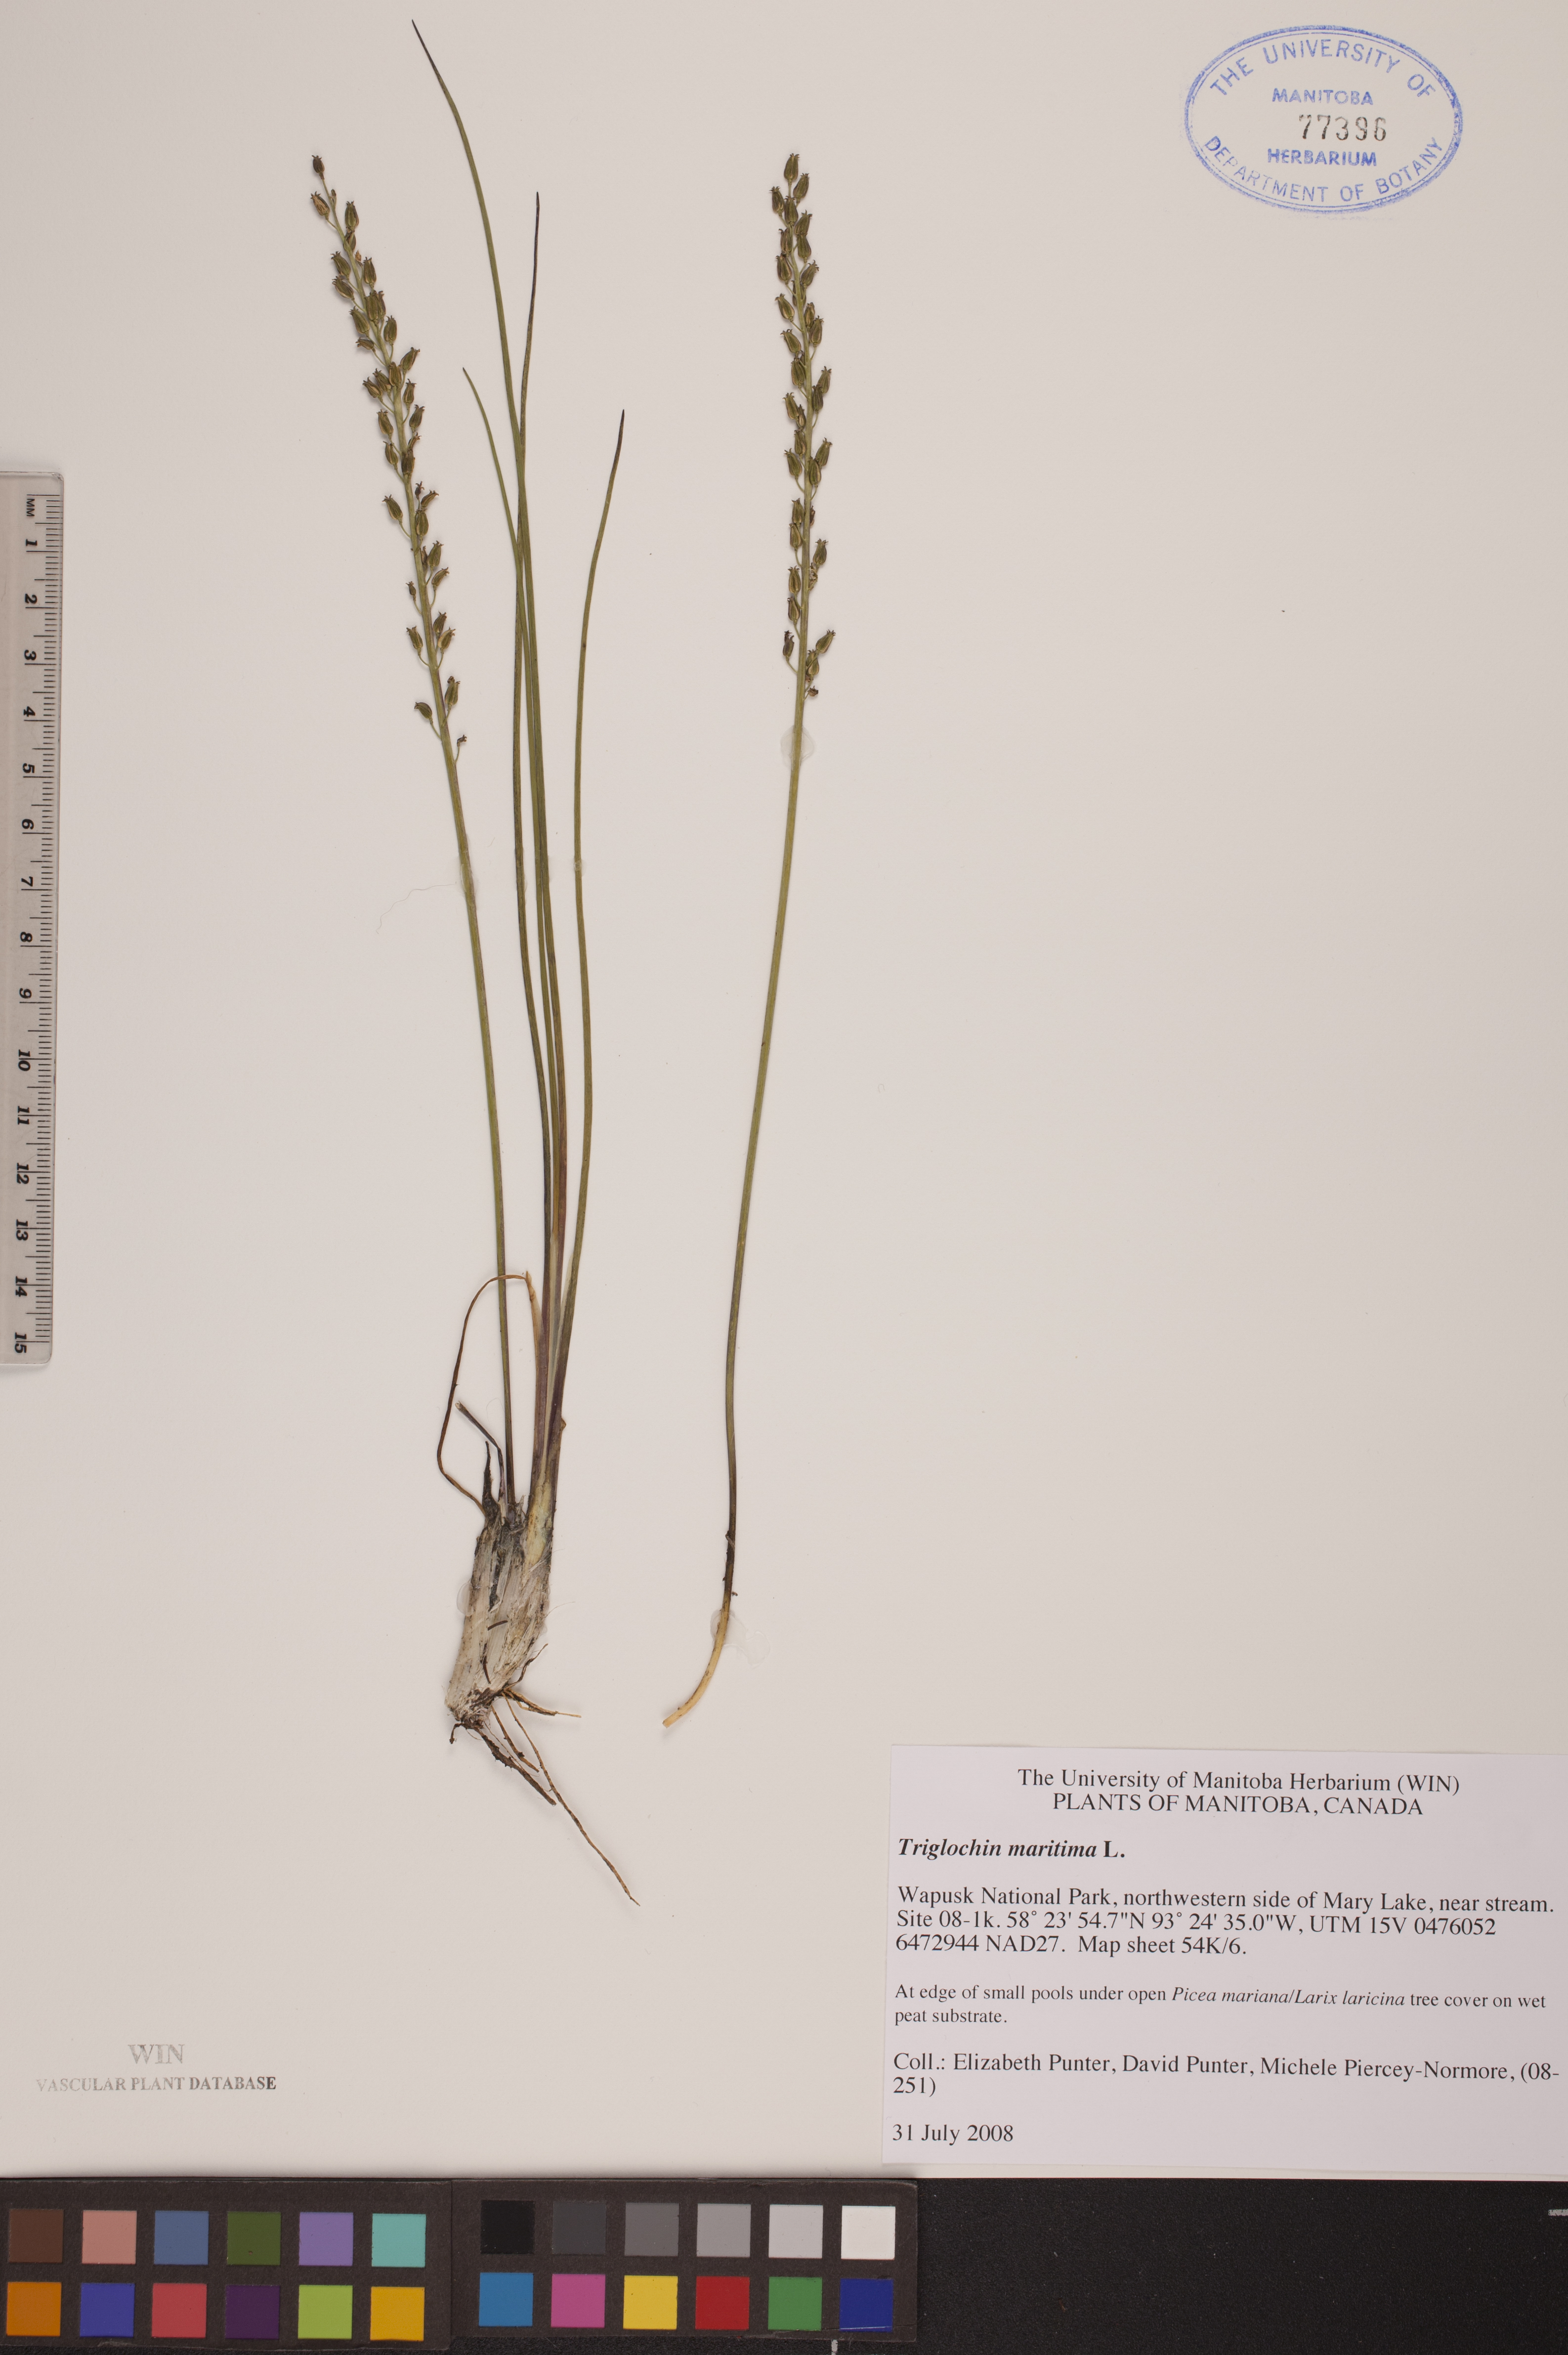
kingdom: Plantae
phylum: Tracheophyta
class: Liliopsida
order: Alismatales
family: Juncaginaceae
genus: Triglochin
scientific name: Triglochin maritima
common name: Sea arrowgrass
